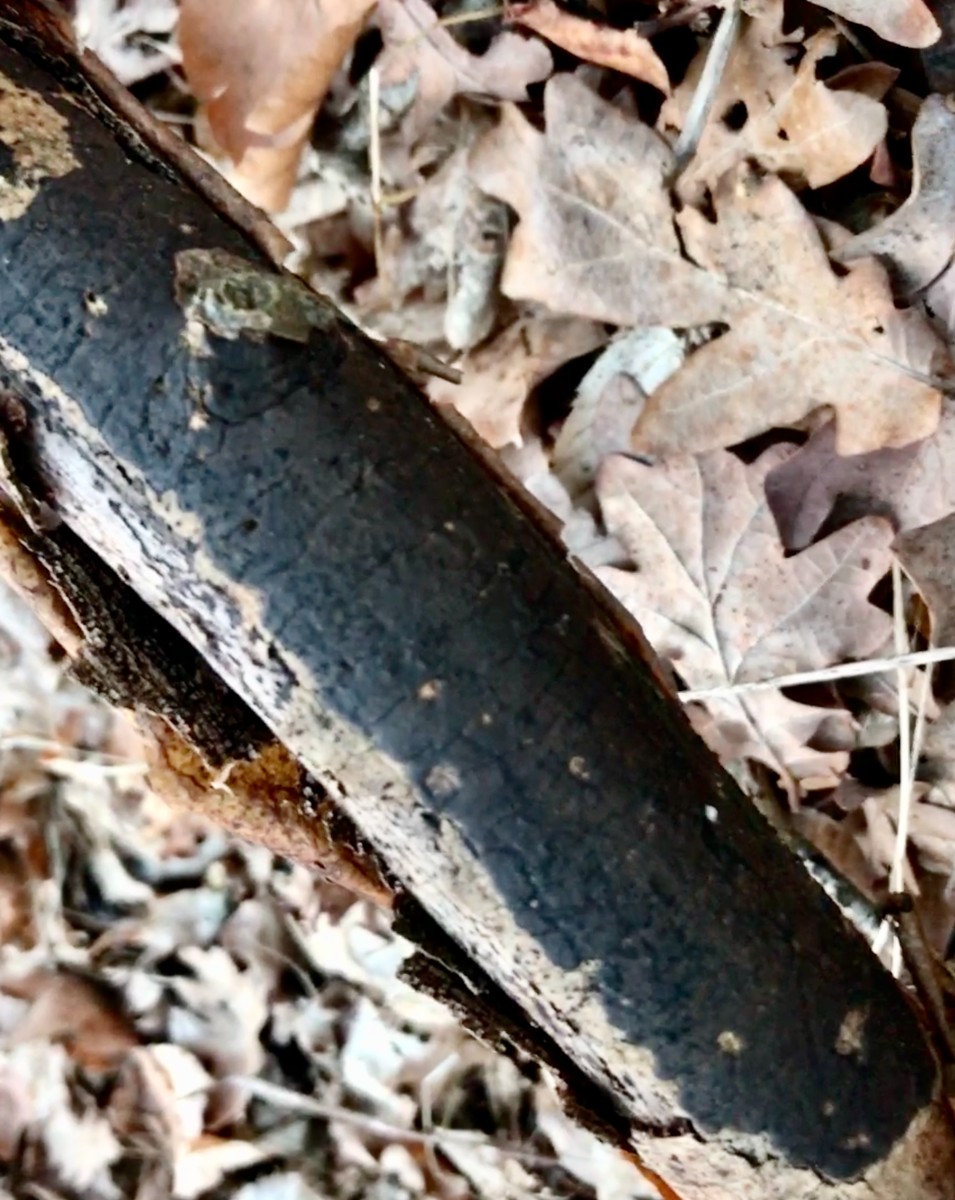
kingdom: Fungi
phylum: Ascomycota
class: Sordariomycetes
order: Xylariales
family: Diatrypaceae
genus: Diatrype
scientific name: Diatrype decorticata
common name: barksprænger-kulskorpe
